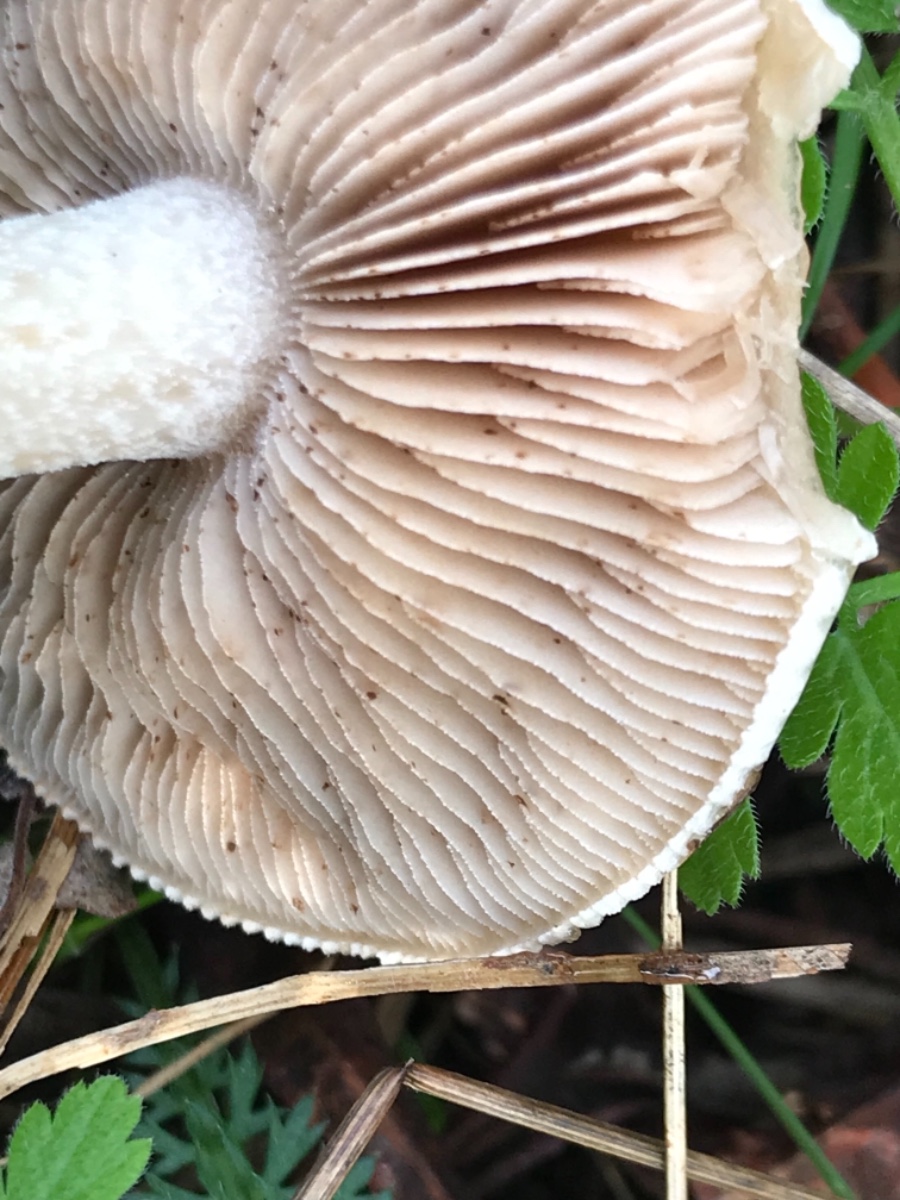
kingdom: Fungi
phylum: Basidiomycota
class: Agaricomycetes
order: Agaricales
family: Hymenogastraceae
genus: Hebeloma
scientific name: Hebeloma
